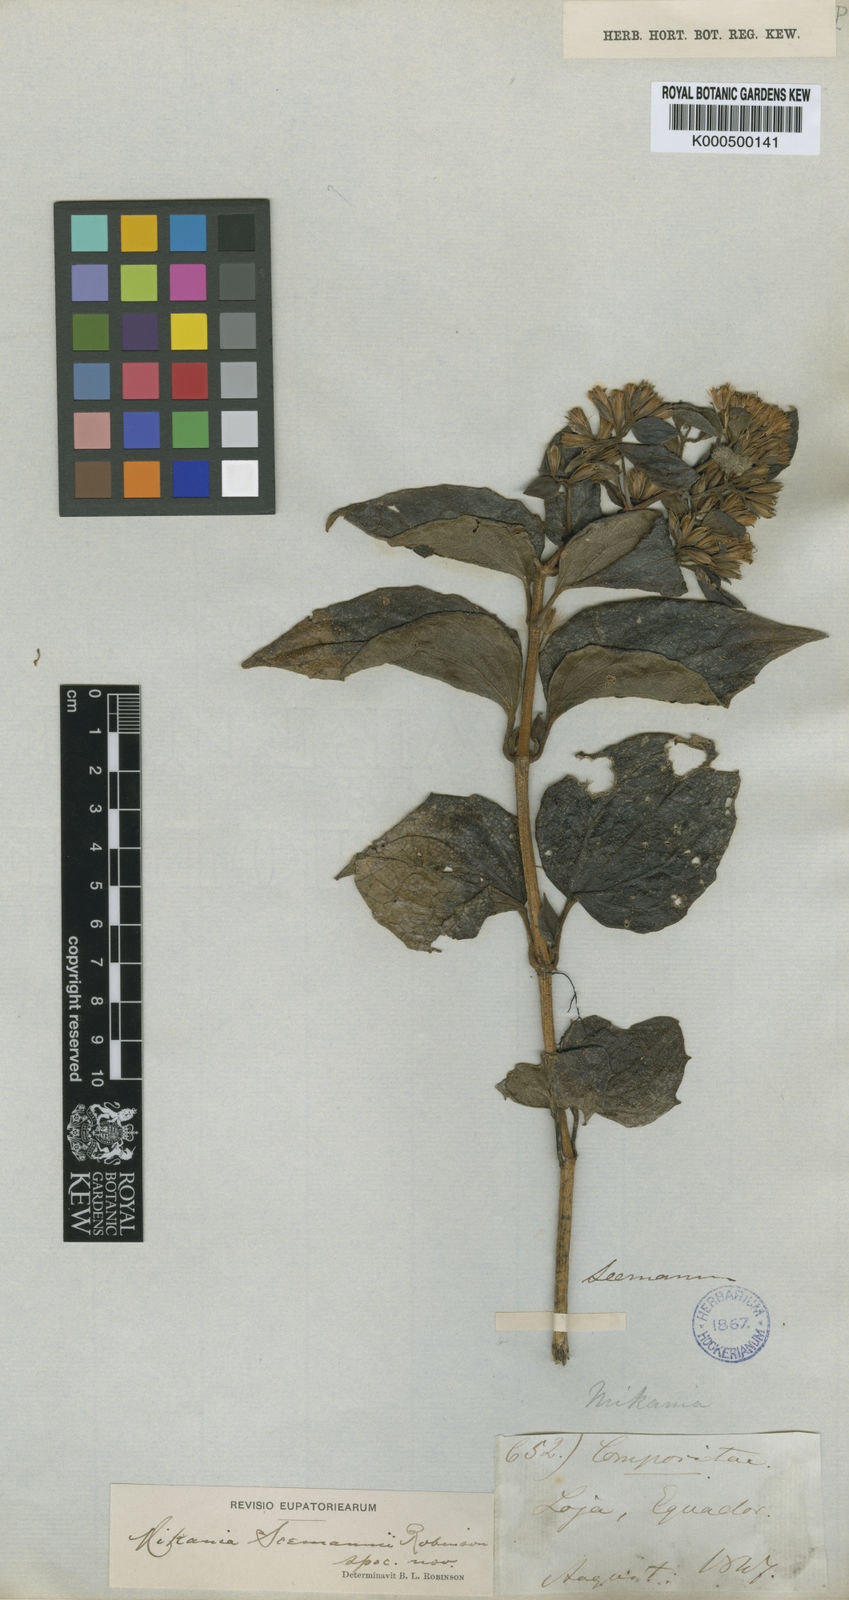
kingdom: Plantae
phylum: Tracheophyta
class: Magnoliopsida
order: Asterales
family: Asteraceae
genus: Mikania
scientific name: Mikania seemannii
